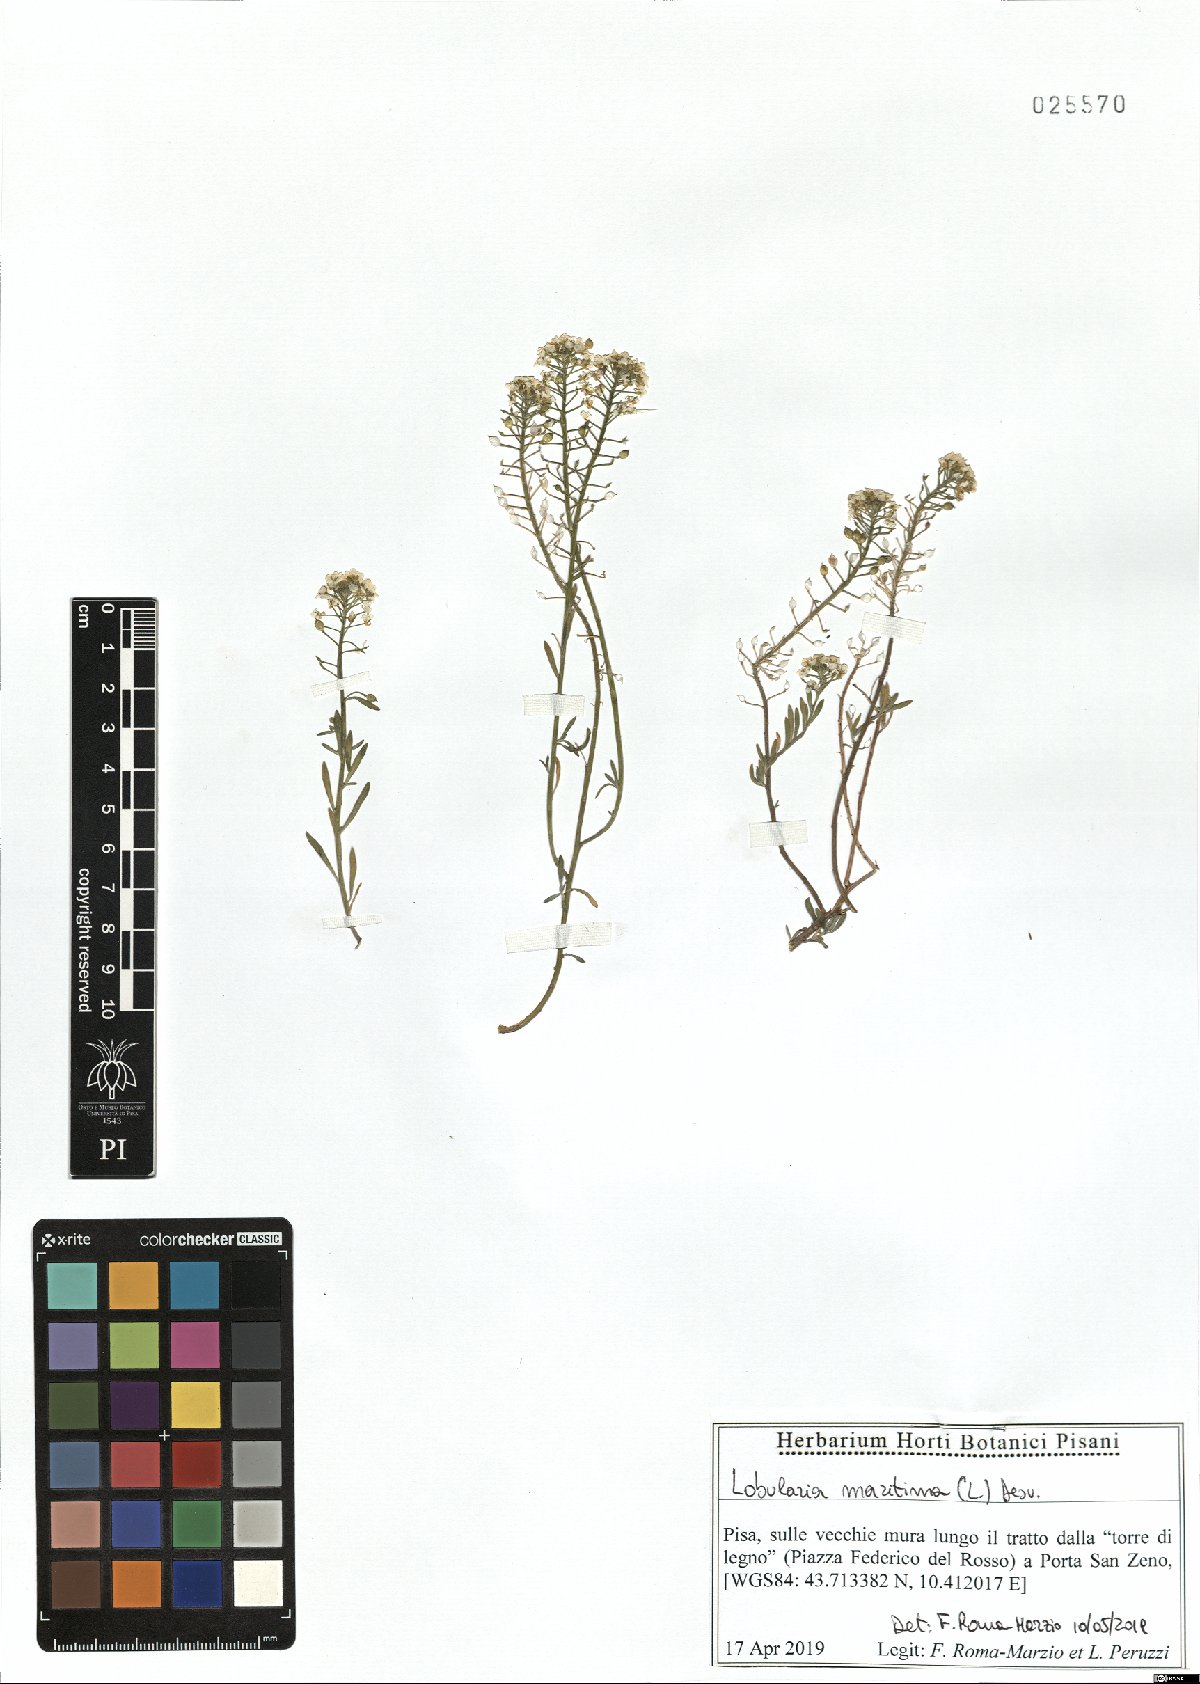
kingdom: Plantae
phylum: Tracheophyta
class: Magnoliopsida
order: Brassicales
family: Brassicaceae
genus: Lobularia
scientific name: Lobularia maritima
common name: Sweet alison
